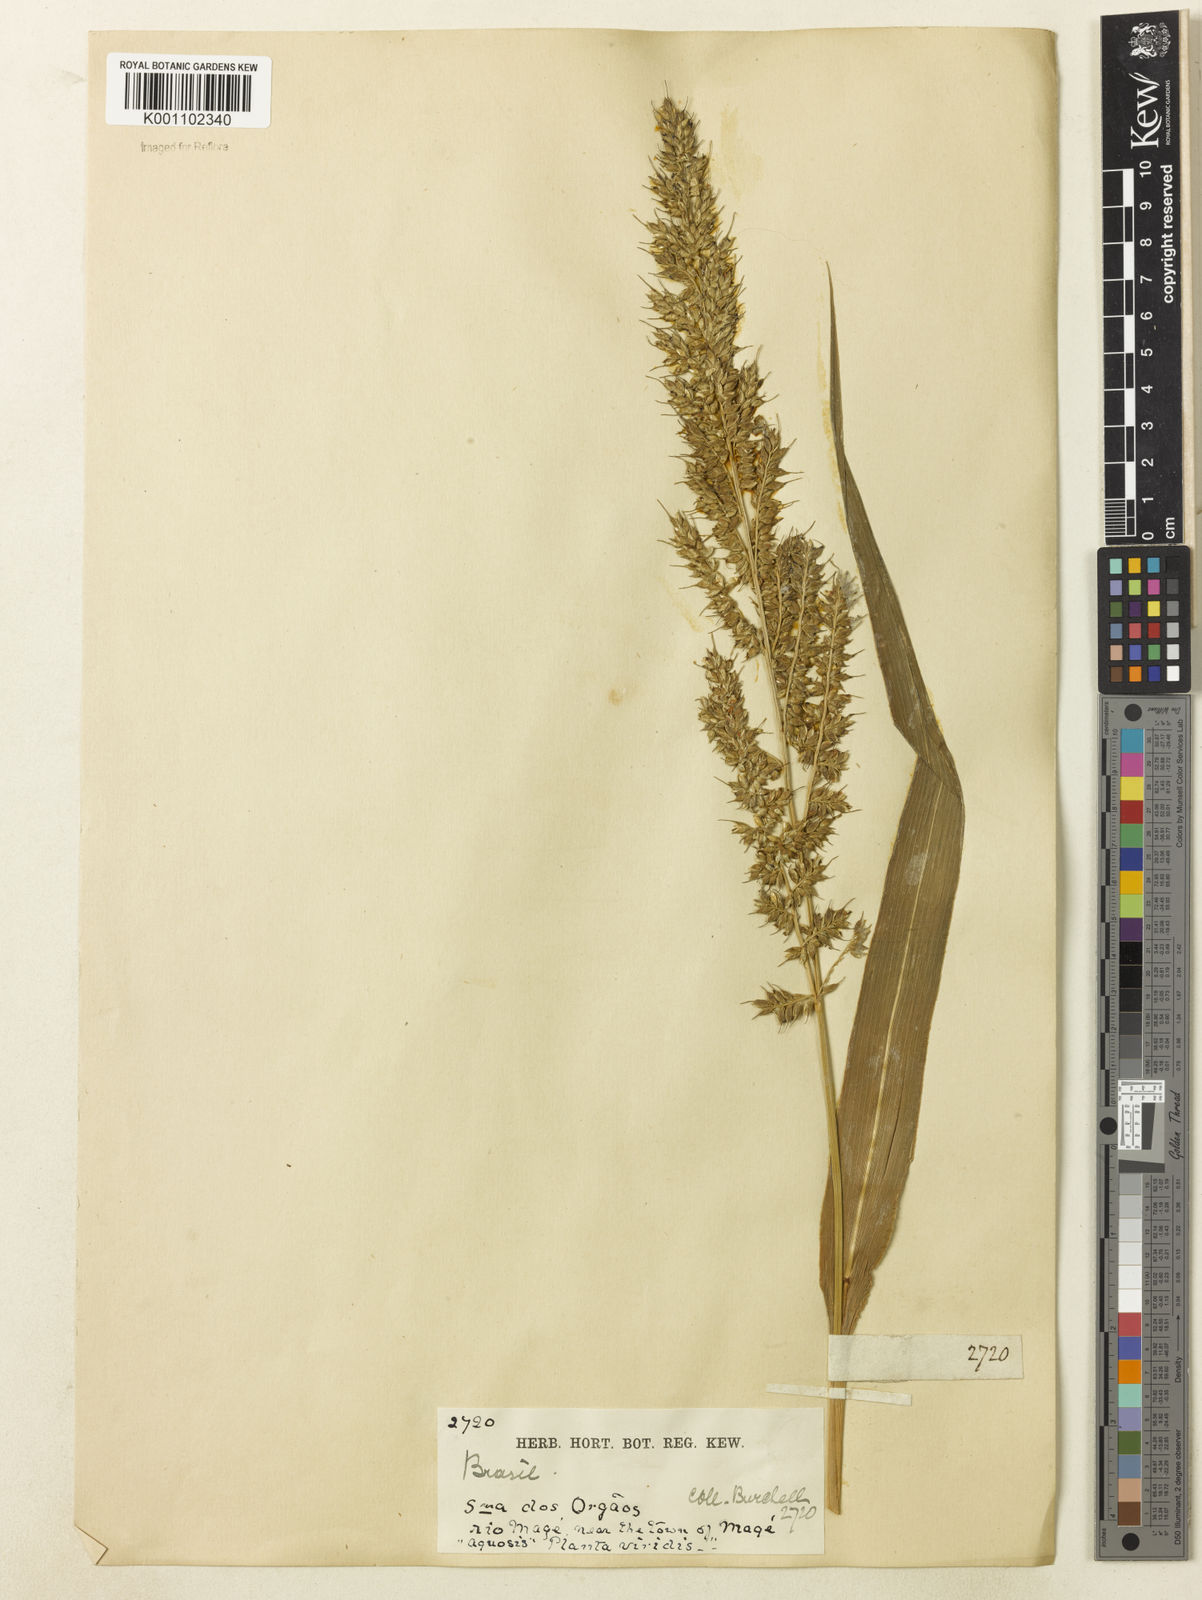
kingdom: Plantae
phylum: Tracheophyta
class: Liliopsida
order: Poales
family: Poaceae
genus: Echinochloa
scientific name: Echinochloa polystachya
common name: Creeping river grass
